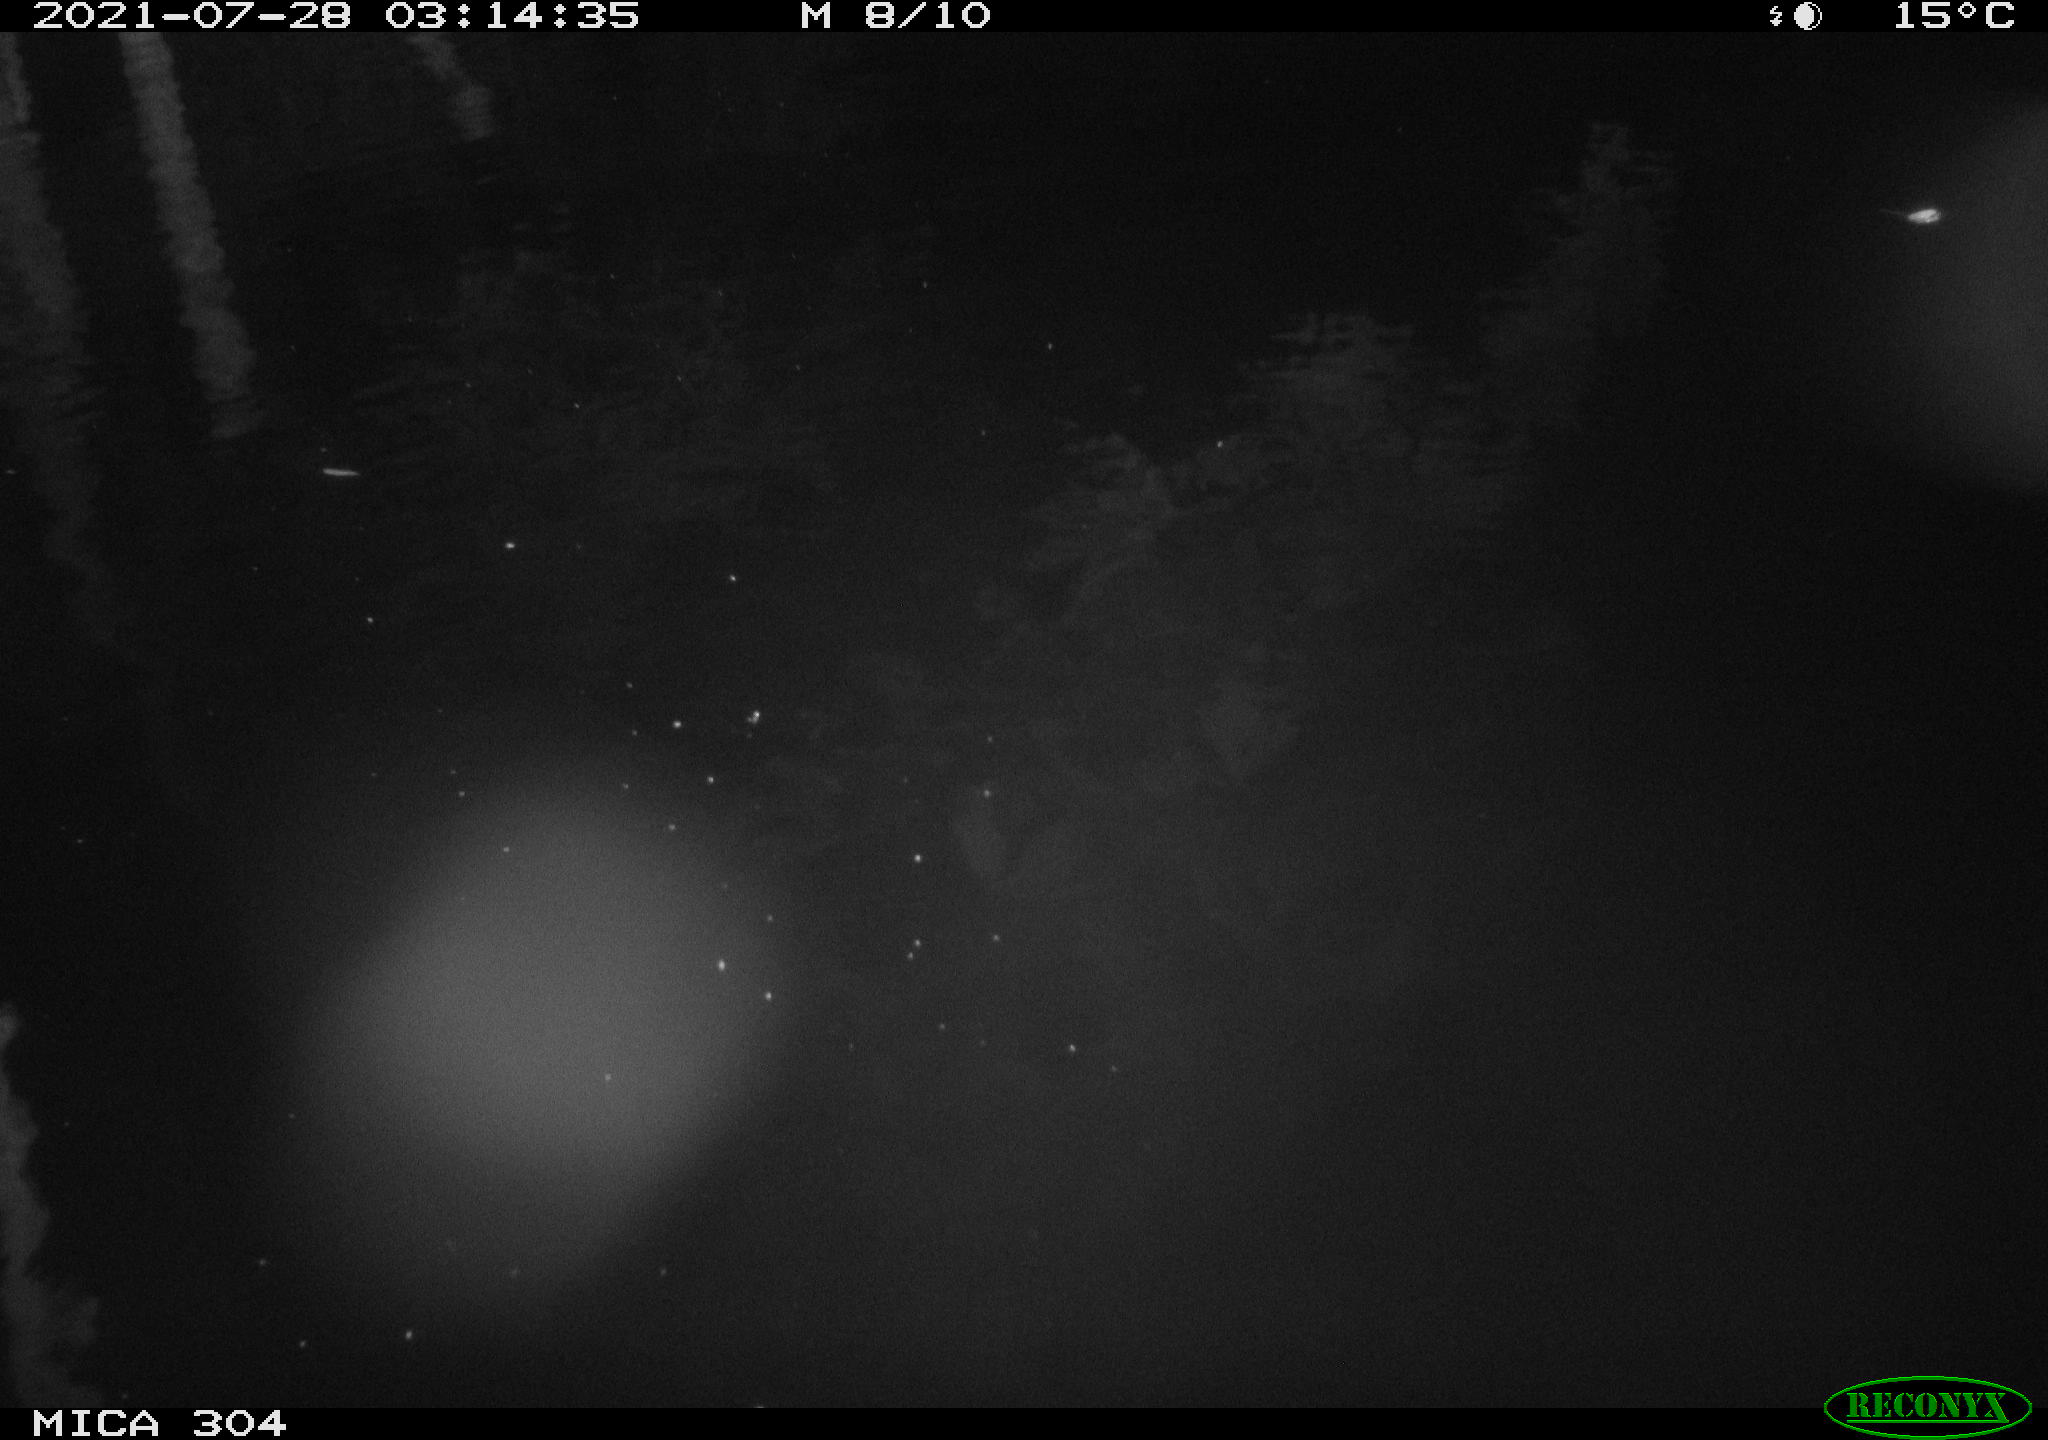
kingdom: Animalia
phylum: Chordata
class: Aves
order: Anseriformes
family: Anatidae
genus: Anas
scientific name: Anas platyrhynchos
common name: Mallard
